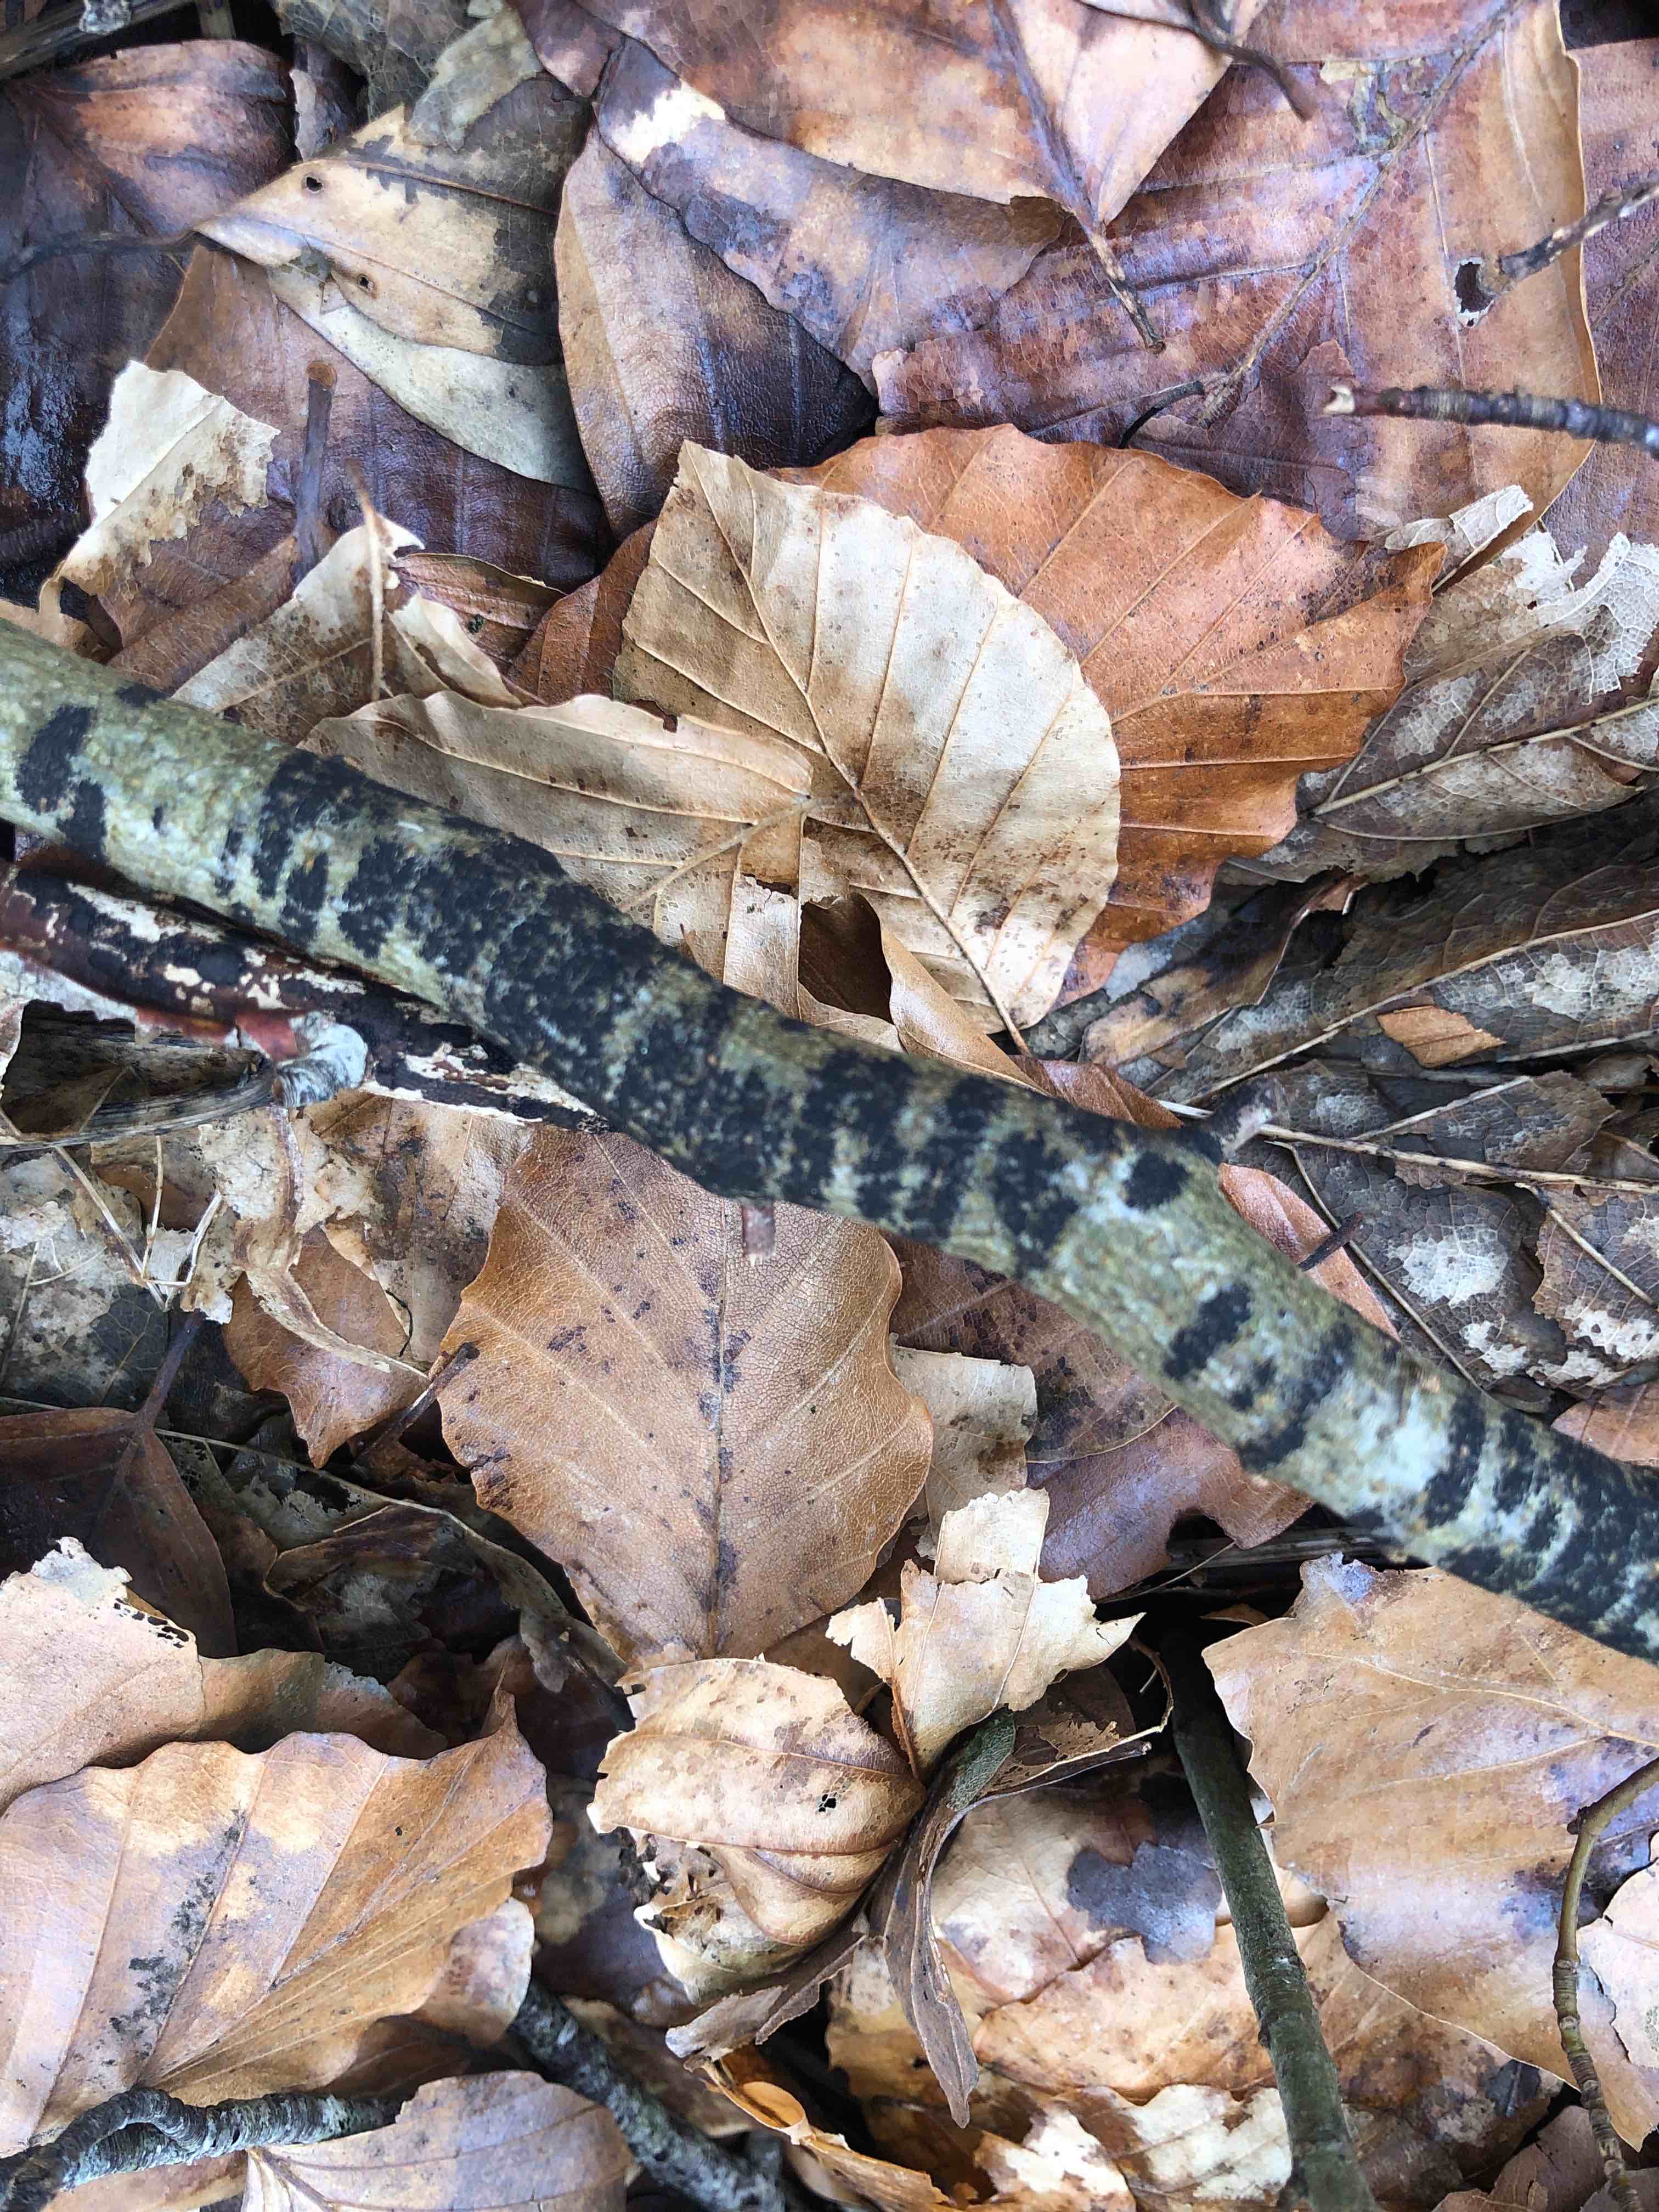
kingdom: Fungi
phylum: Ascomycota
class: Leotiomycetes
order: Rhytismatales
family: Ascodichaenaceae
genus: Ascodichaena
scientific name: Ascodichaena rugosa
